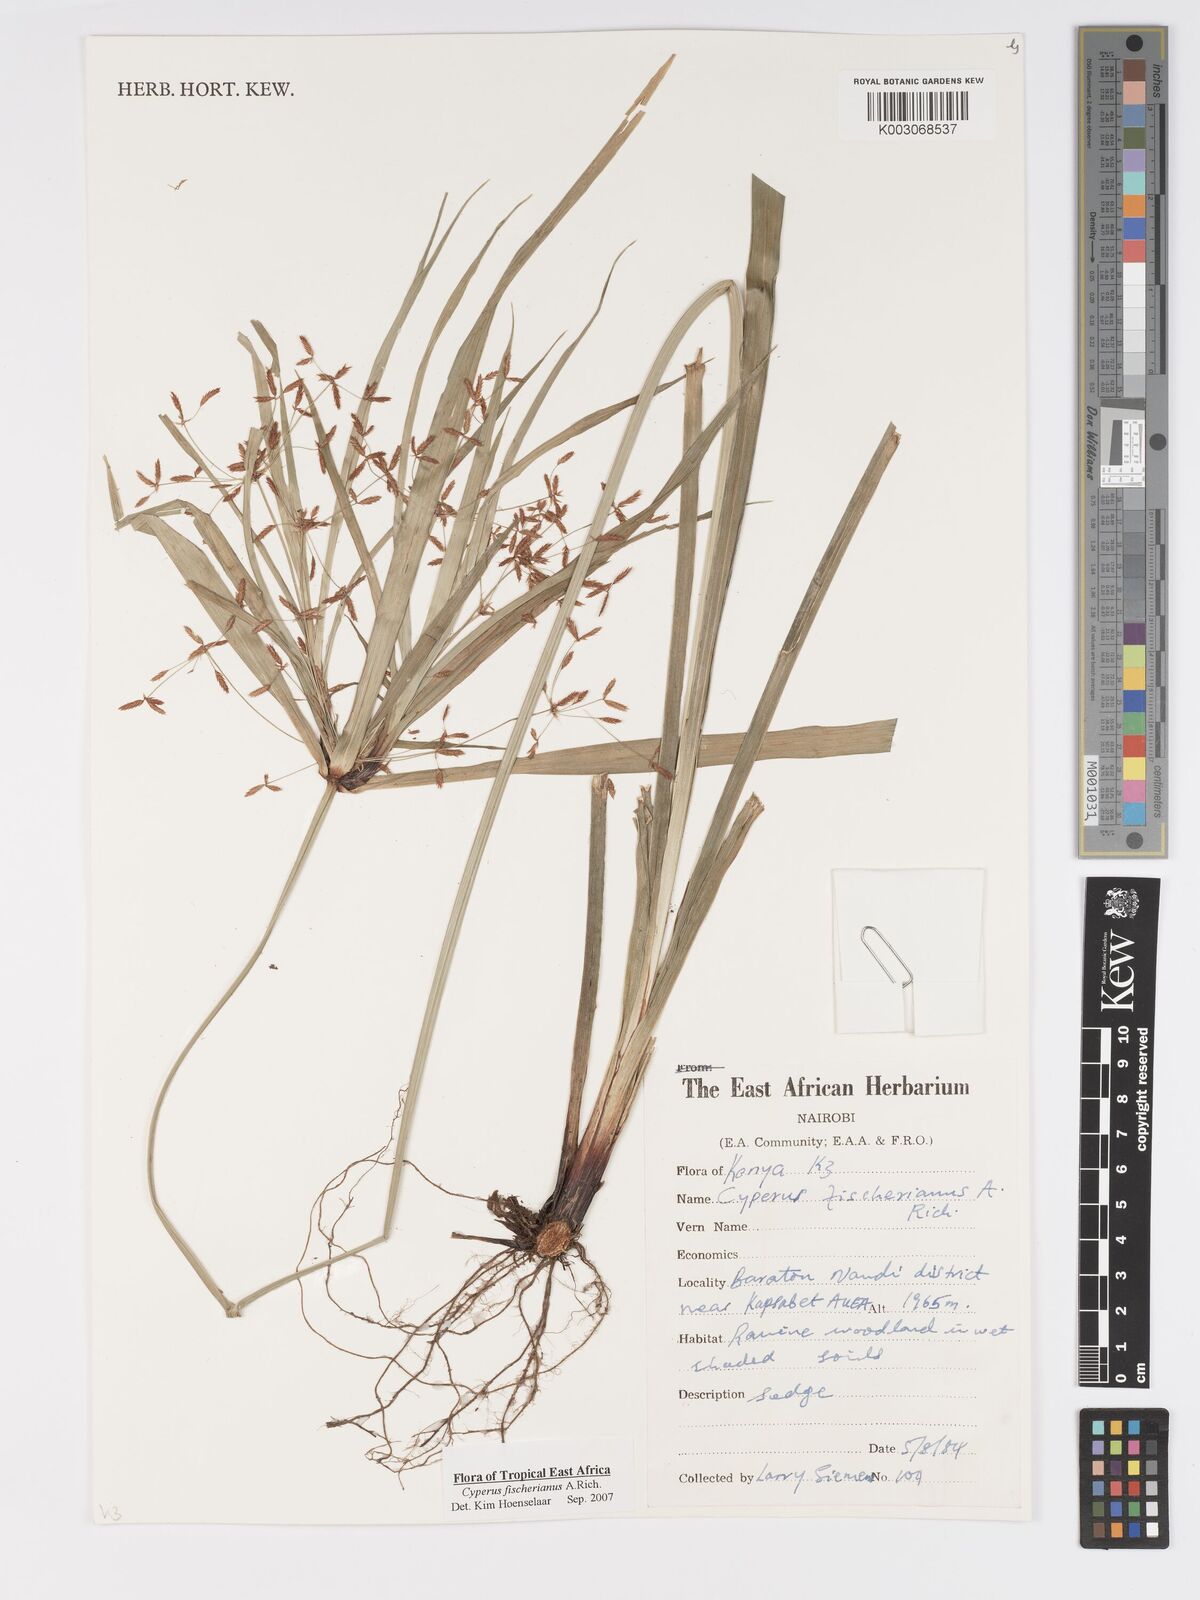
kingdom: Plantae
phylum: Tracheophyta
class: Liliopsida
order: Poales
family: Cyperaceae
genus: Cyperus
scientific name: Cyperus fischerianus
